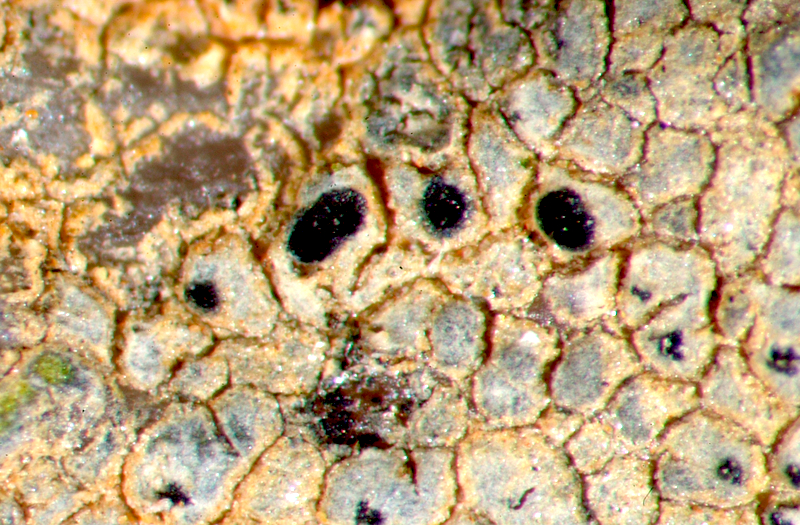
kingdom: Fungi
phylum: Ascomycota
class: Lecanoromycetes
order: Acarosporales
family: Acarosporaceae
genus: Acarospora
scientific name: Acarospora
